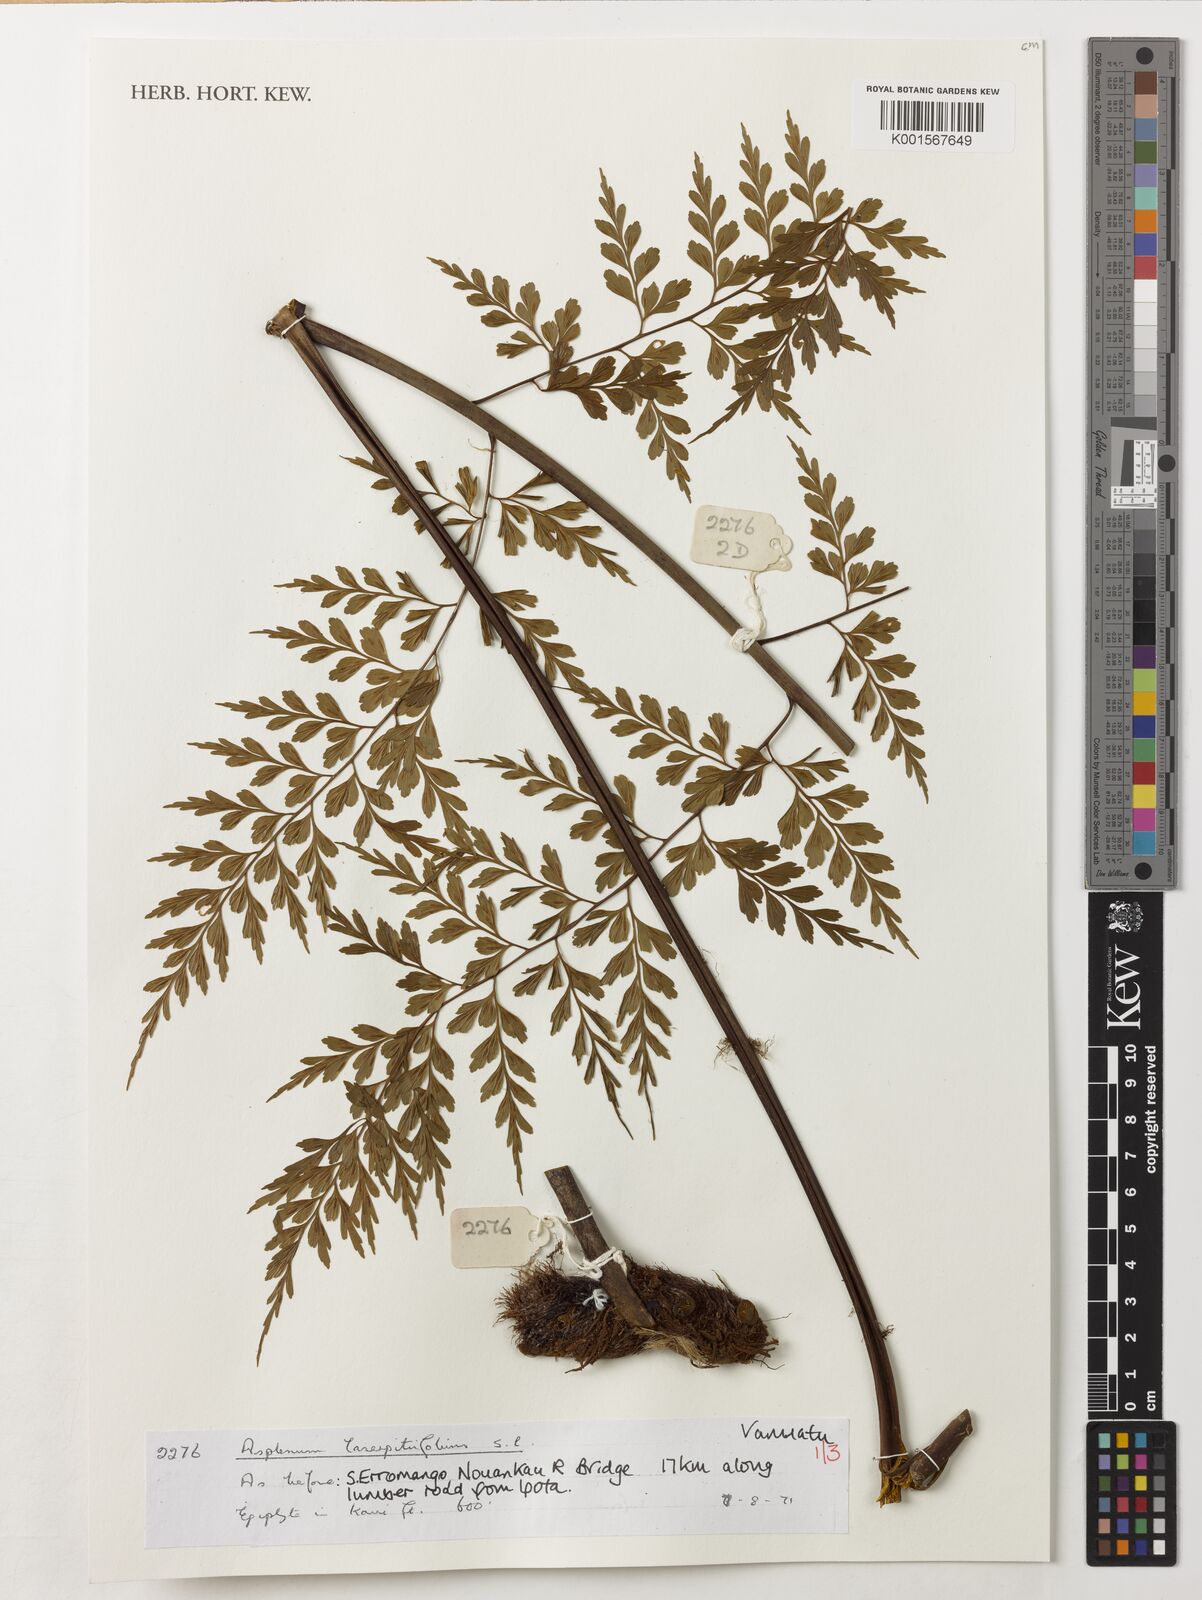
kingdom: Plantae
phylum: Tracheophyta
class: Polypodiopsida
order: Polypodiales
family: Aspleniaceae
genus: Asplenium
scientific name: Asplenium laserpitiifolium
